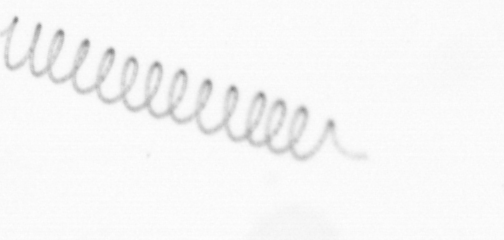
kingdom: Chromista
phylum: Ochrophyta
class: Bacillariophyceae
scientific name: Bacillariophyceae
